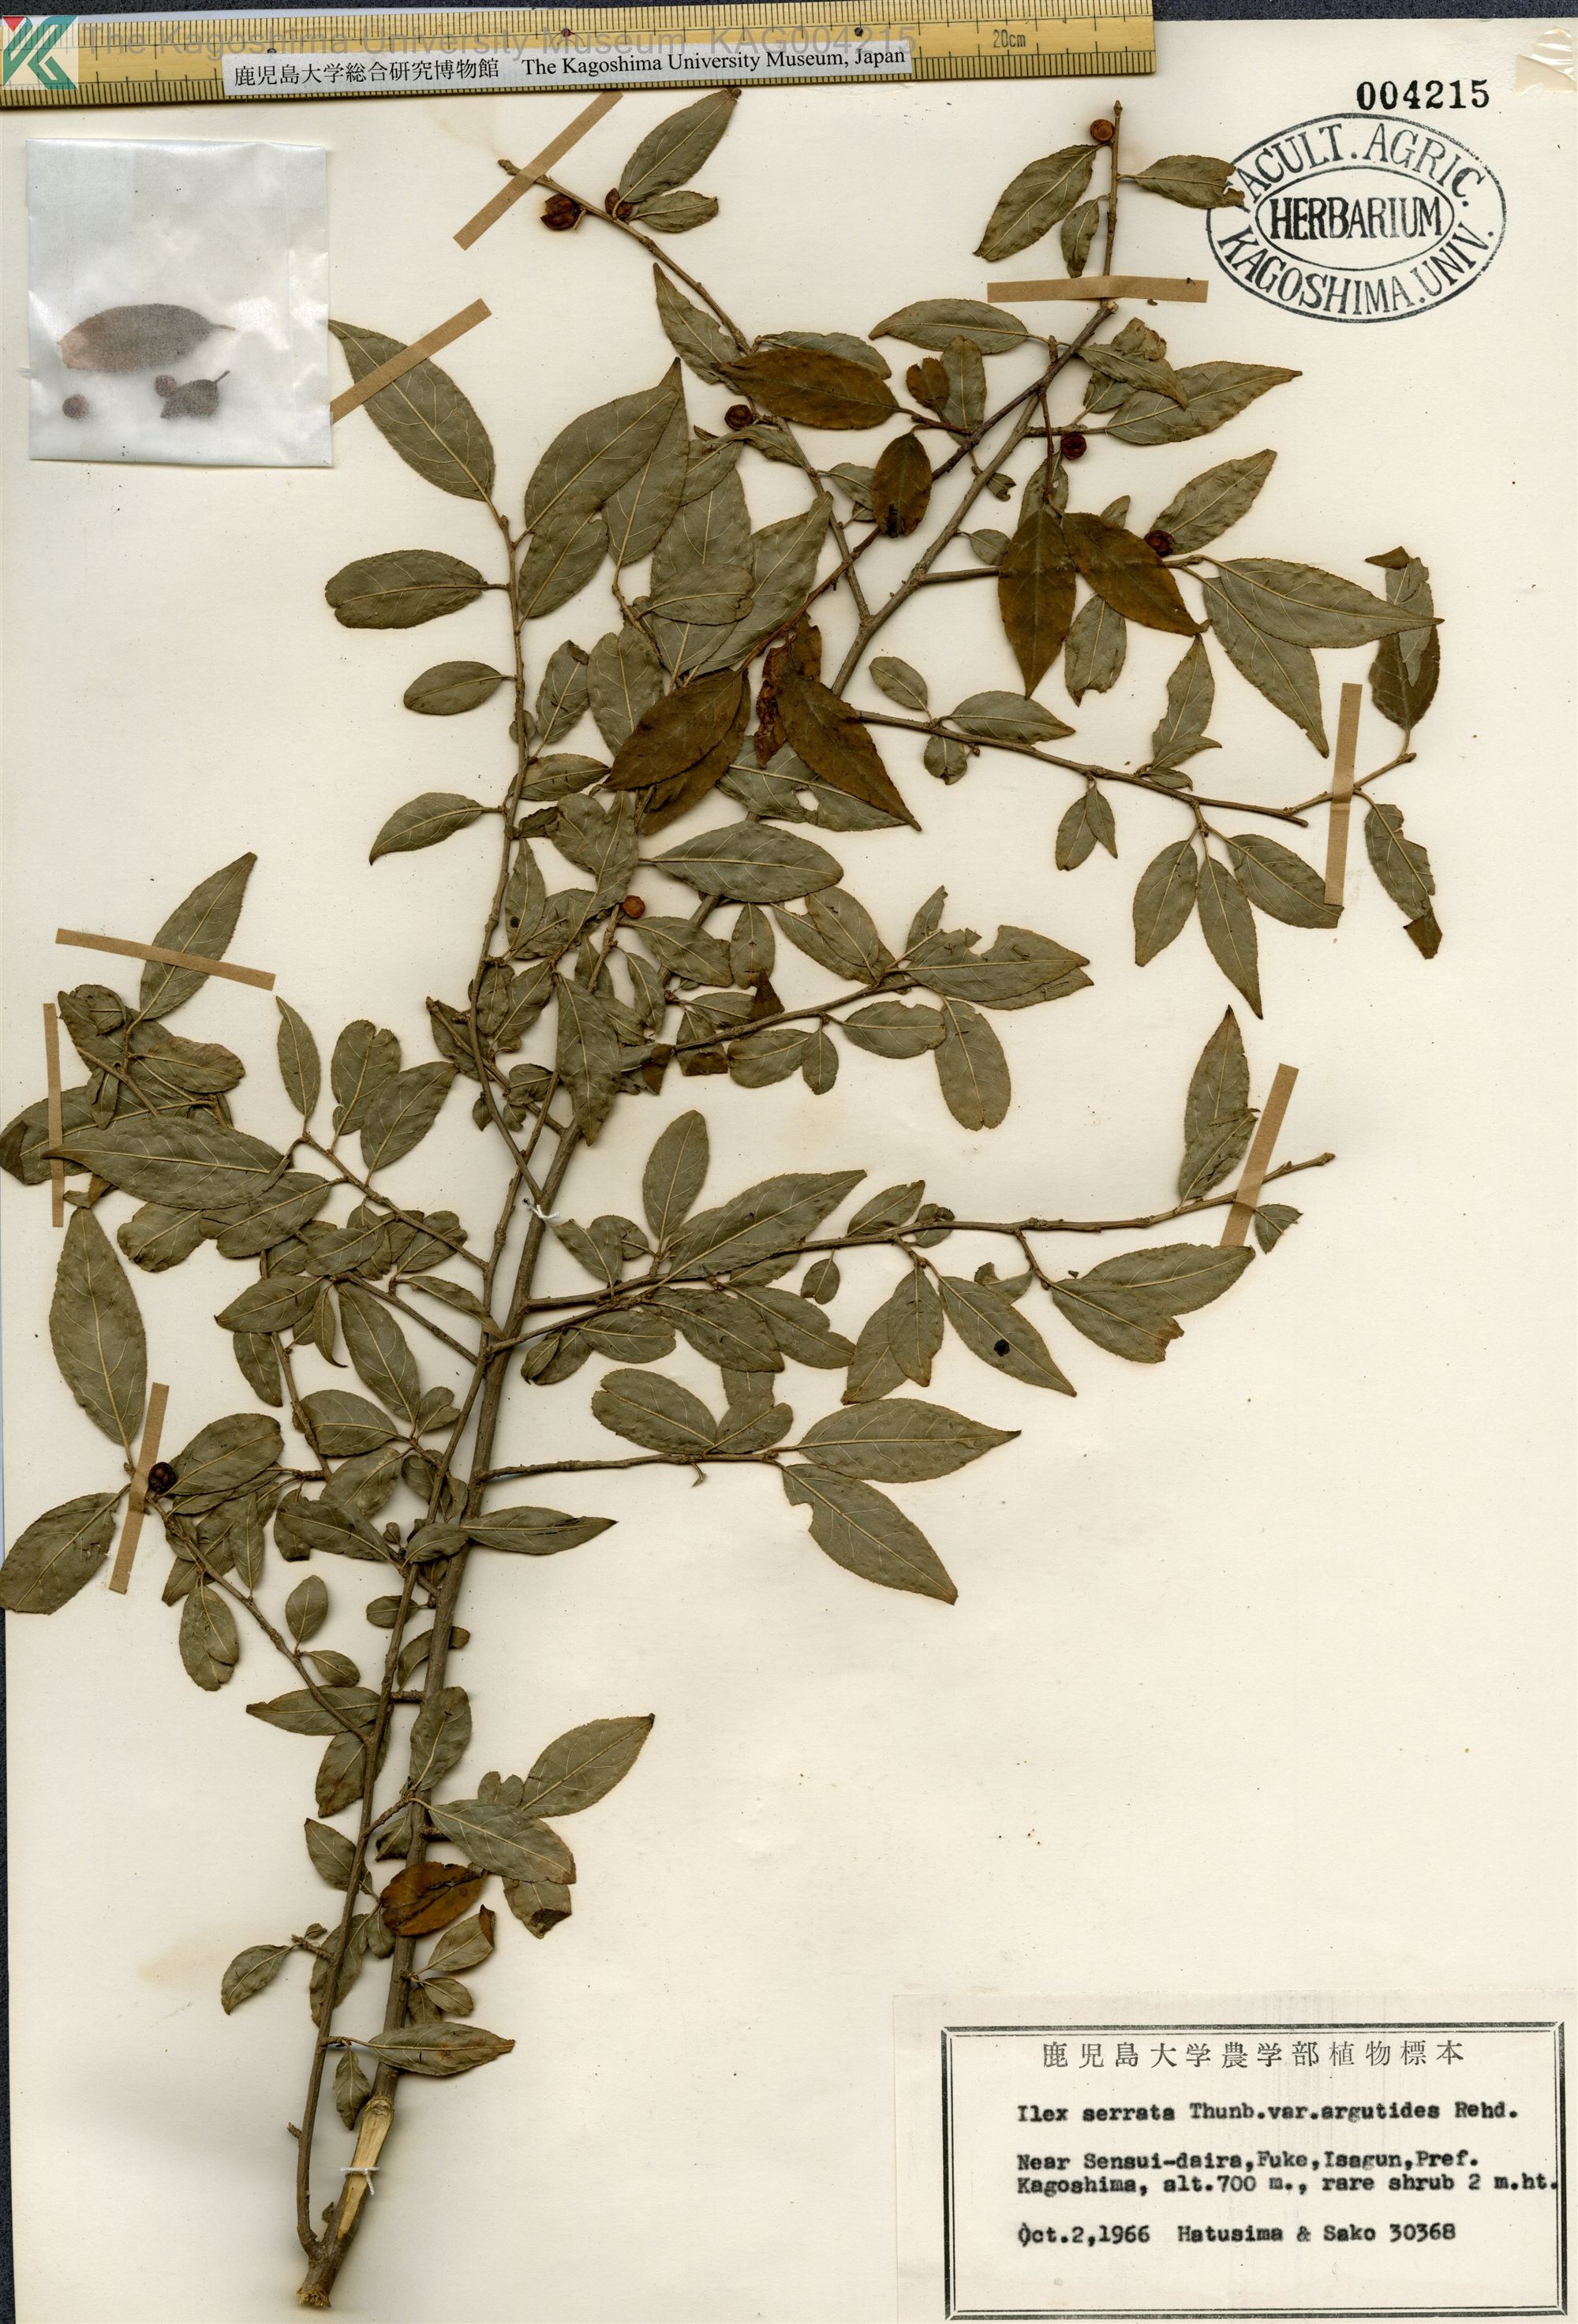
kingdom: Plantae
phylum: Tracheophyta
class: Magnoliopsida
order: Aquifoliales
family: Aquifoliaceae
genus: Ilex
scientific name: Ilex serrata
